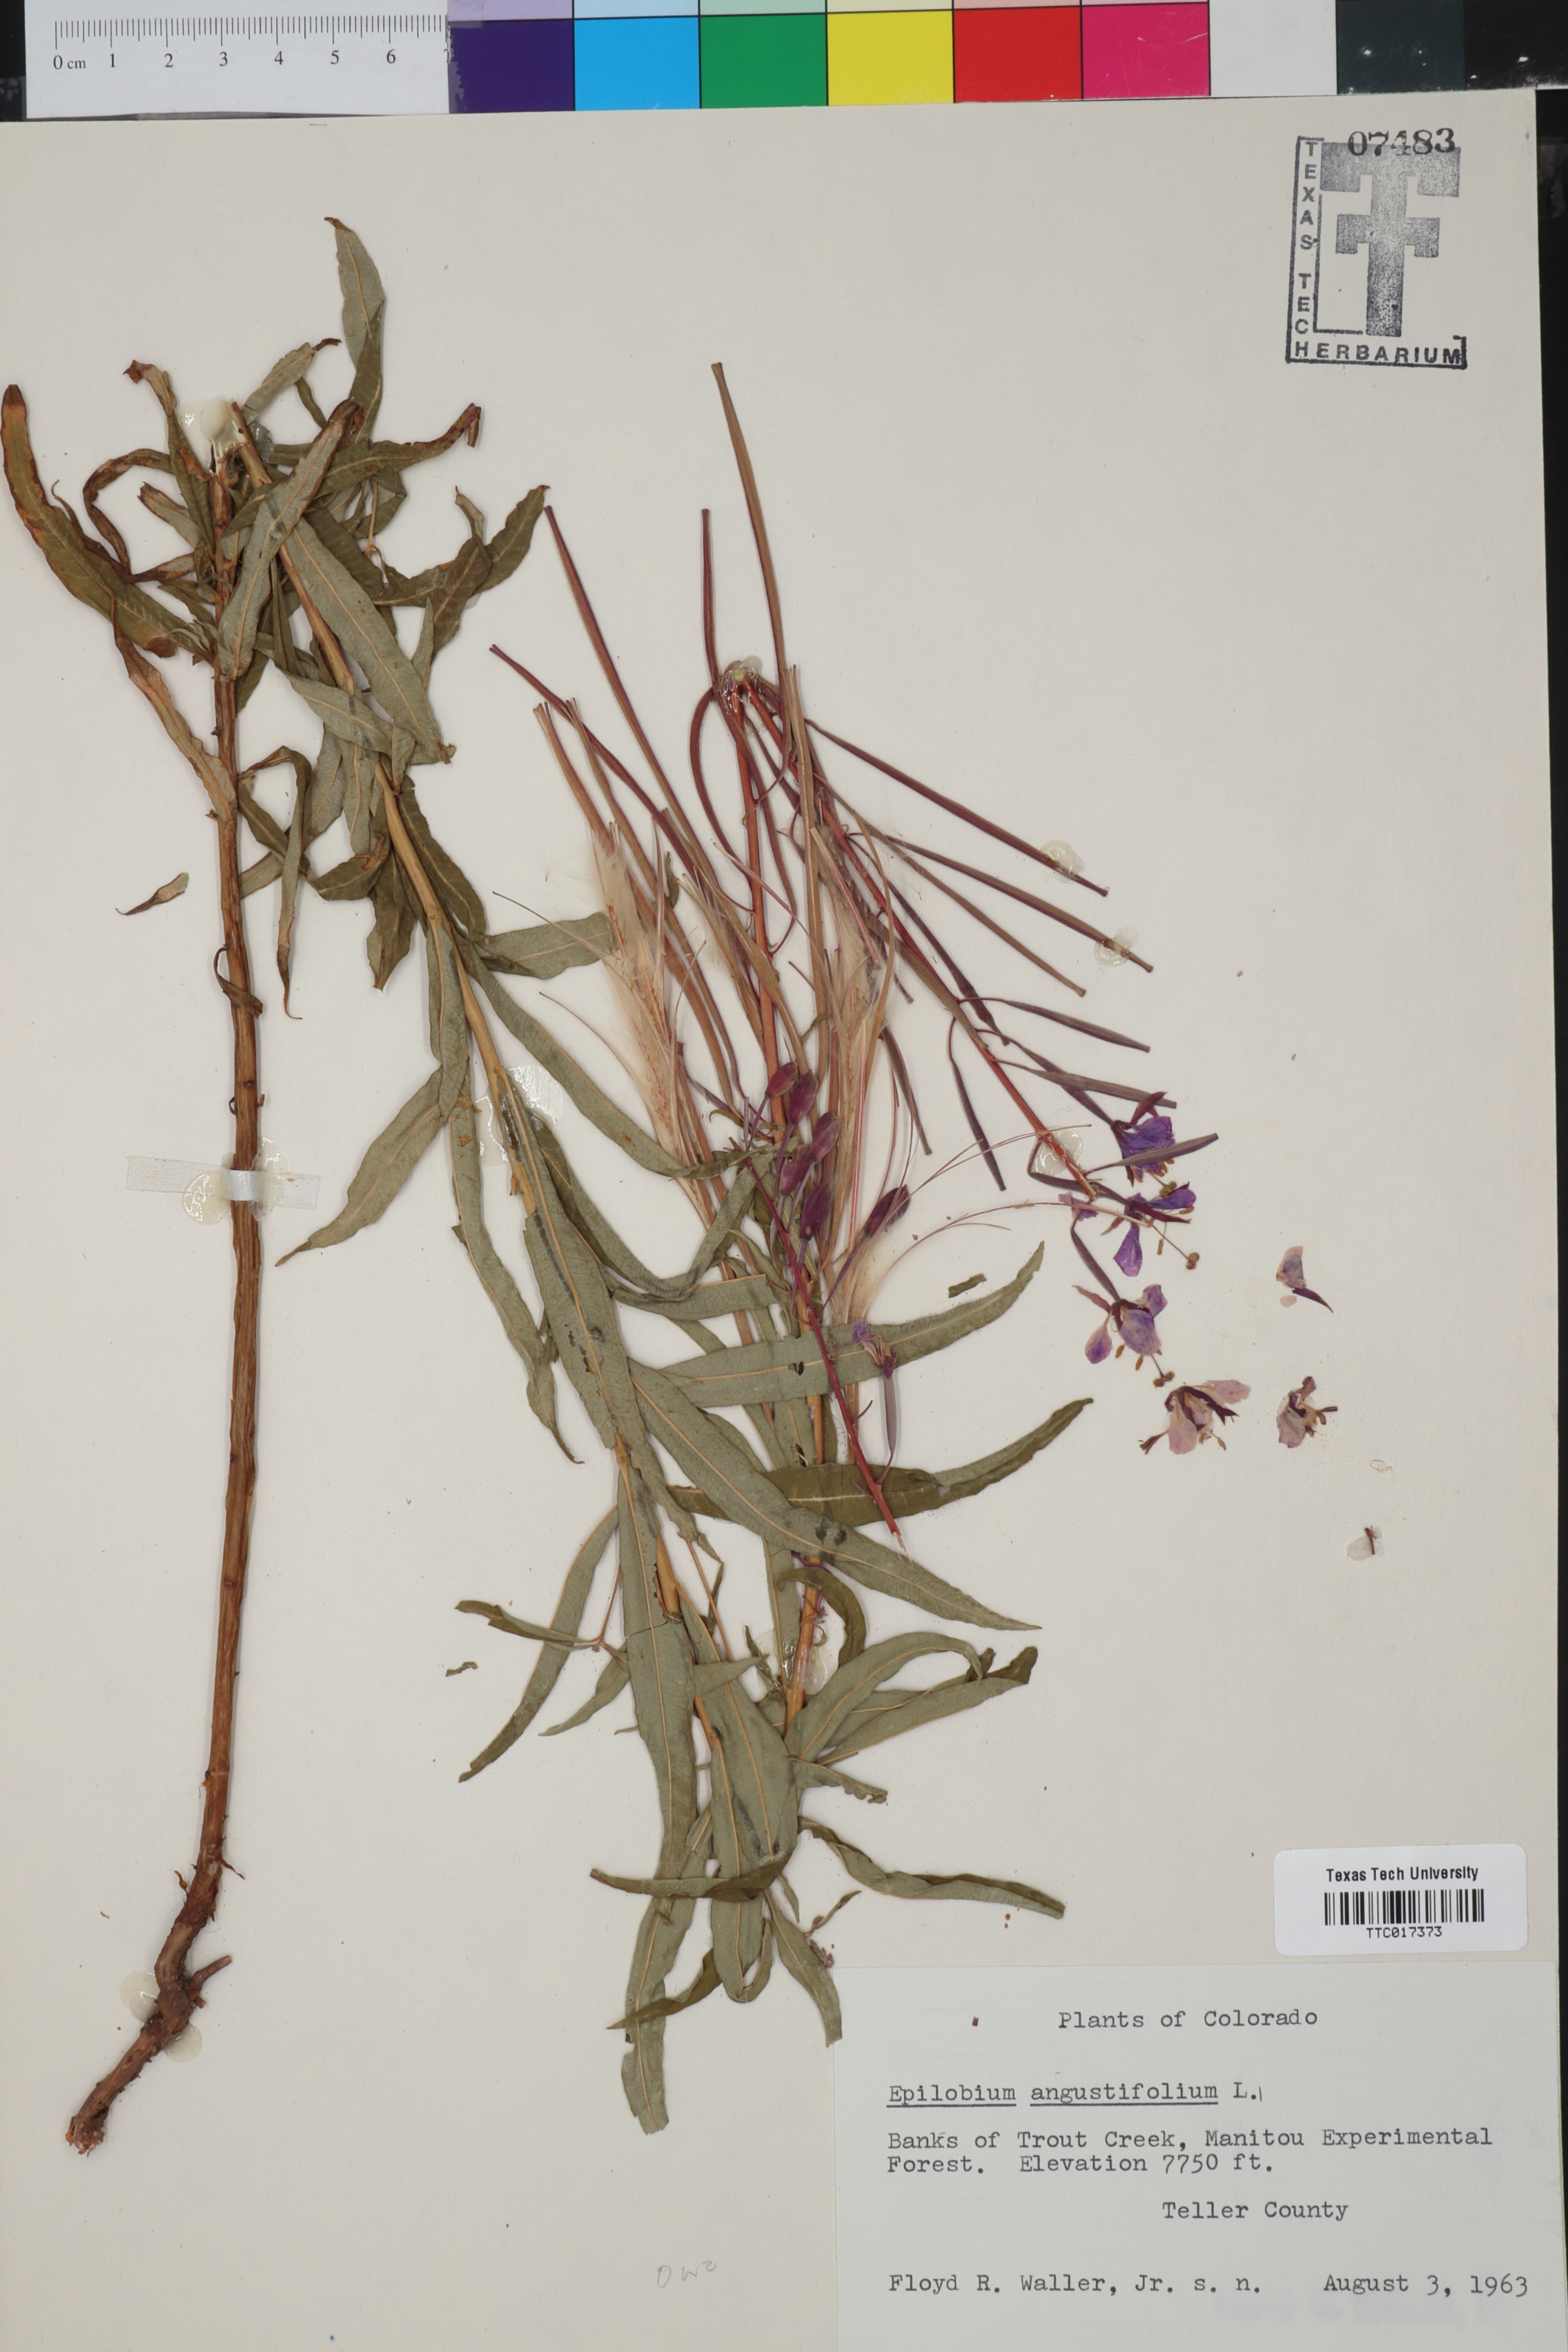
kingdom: Plantae
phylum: Tracheophyta
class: Magnoliopsida
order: Myrtales
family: Onagraceae
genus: Chamaenerion
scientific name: Chamaenerion dodonaei
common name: Rosemary-leaved willowherb
